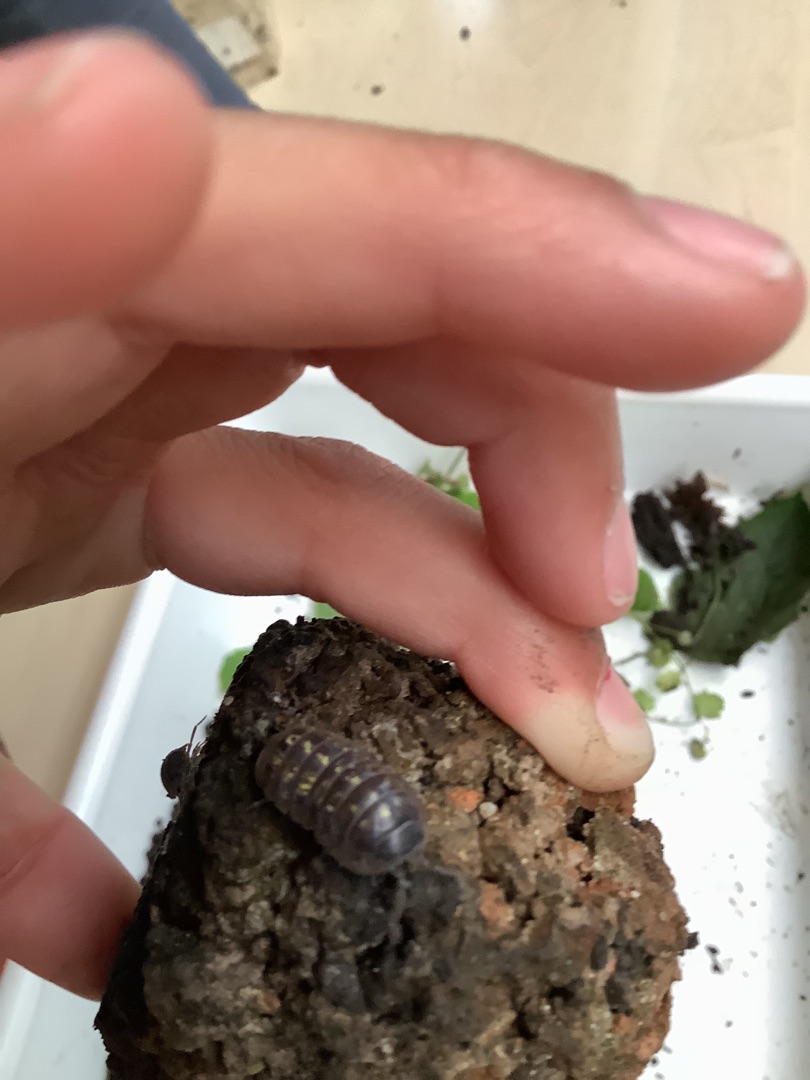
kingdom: Animalia
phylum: Arthropoda
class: Malacostraca
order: Isopoda
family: Armadillidiidae
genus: Armadillidium
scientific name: Armadillidium vulgare
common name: Almindelig kuglebænkebider
